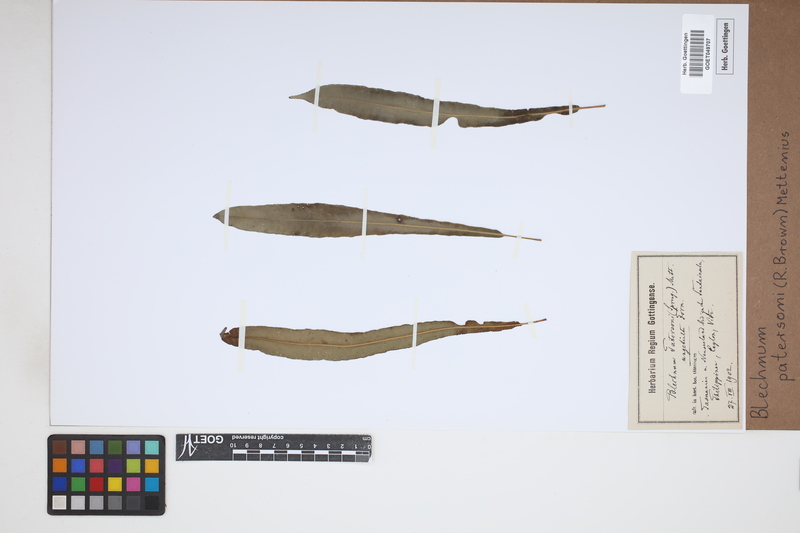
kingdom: Plantae
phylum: Tracheophyta
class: Polypodiopsida
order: Polypodiales
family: Blechnaceae
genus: Austroblechnum
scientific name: Austroblechnum patersonii
